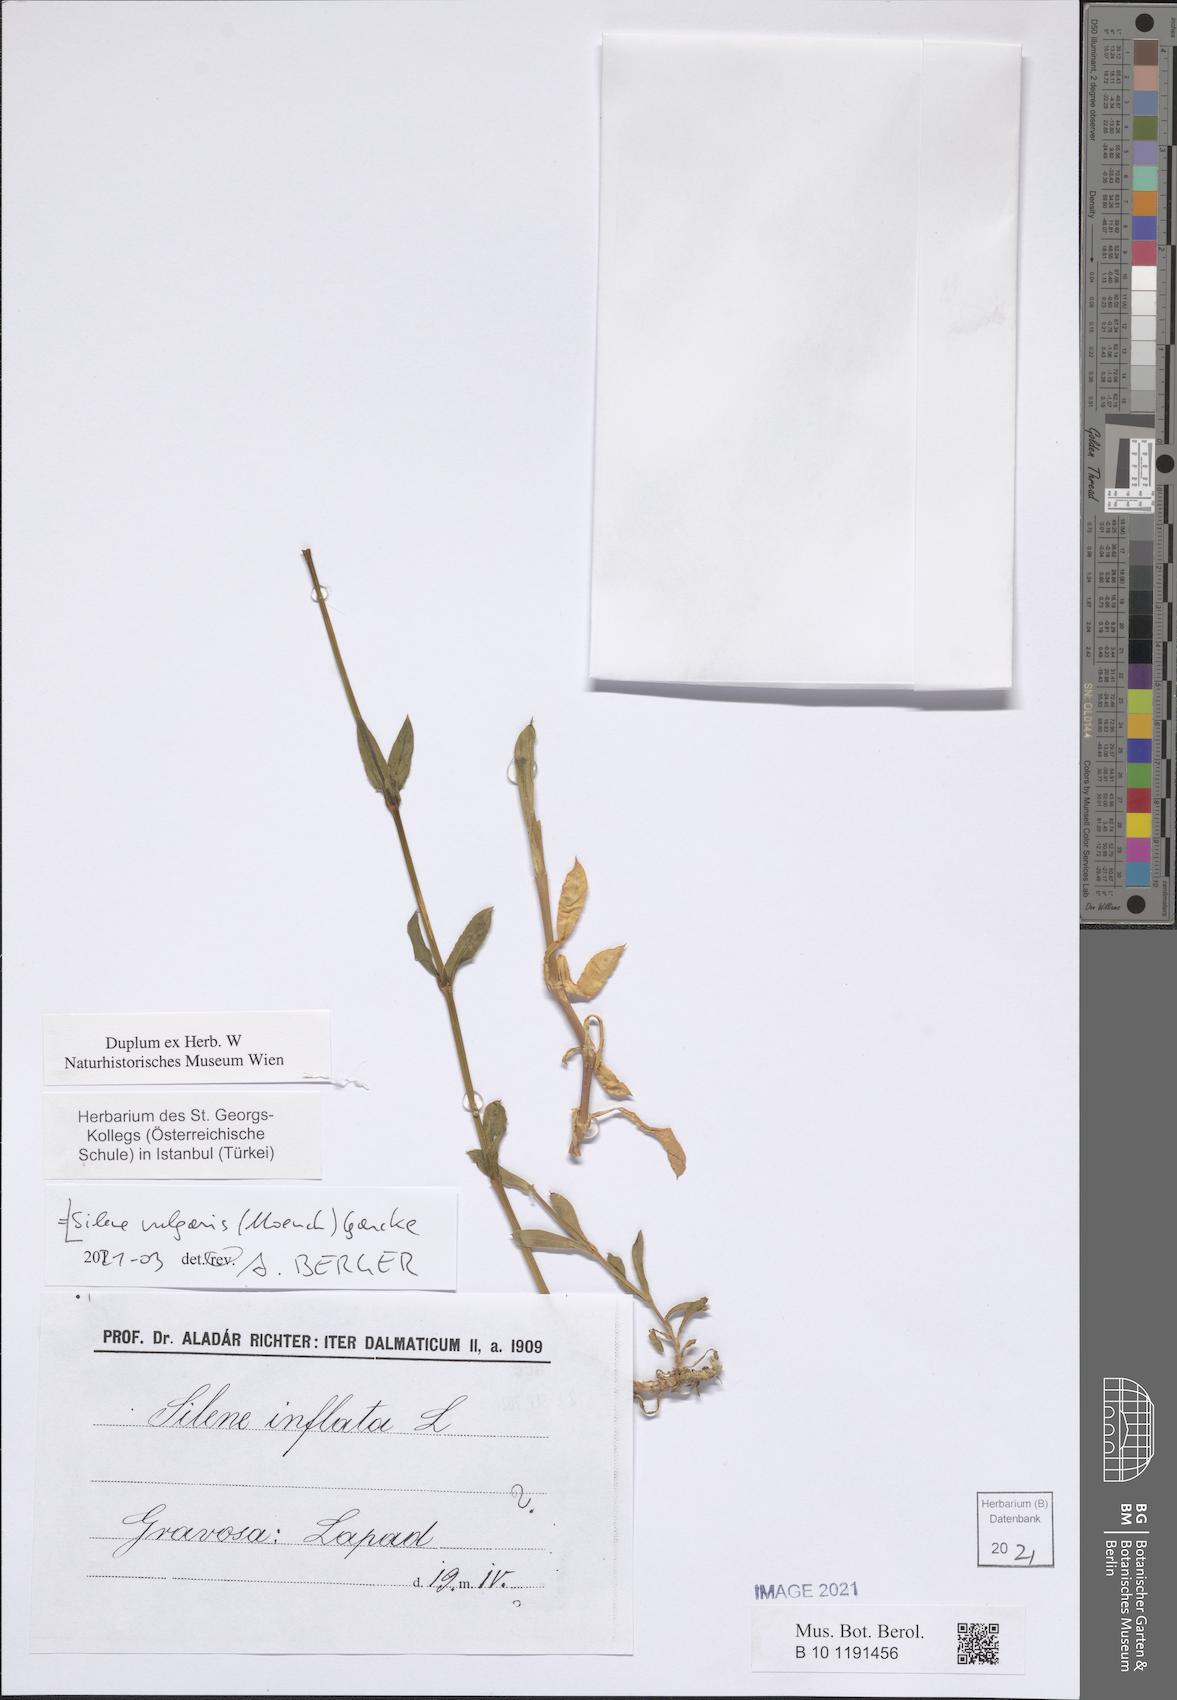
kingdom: Plantae
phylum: Tracheophyta
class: Magnoliopsida
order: Caryophyllales
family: Caryophyllaceae
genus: Silene
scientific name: Silene vulgaris
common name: Bladder campion
